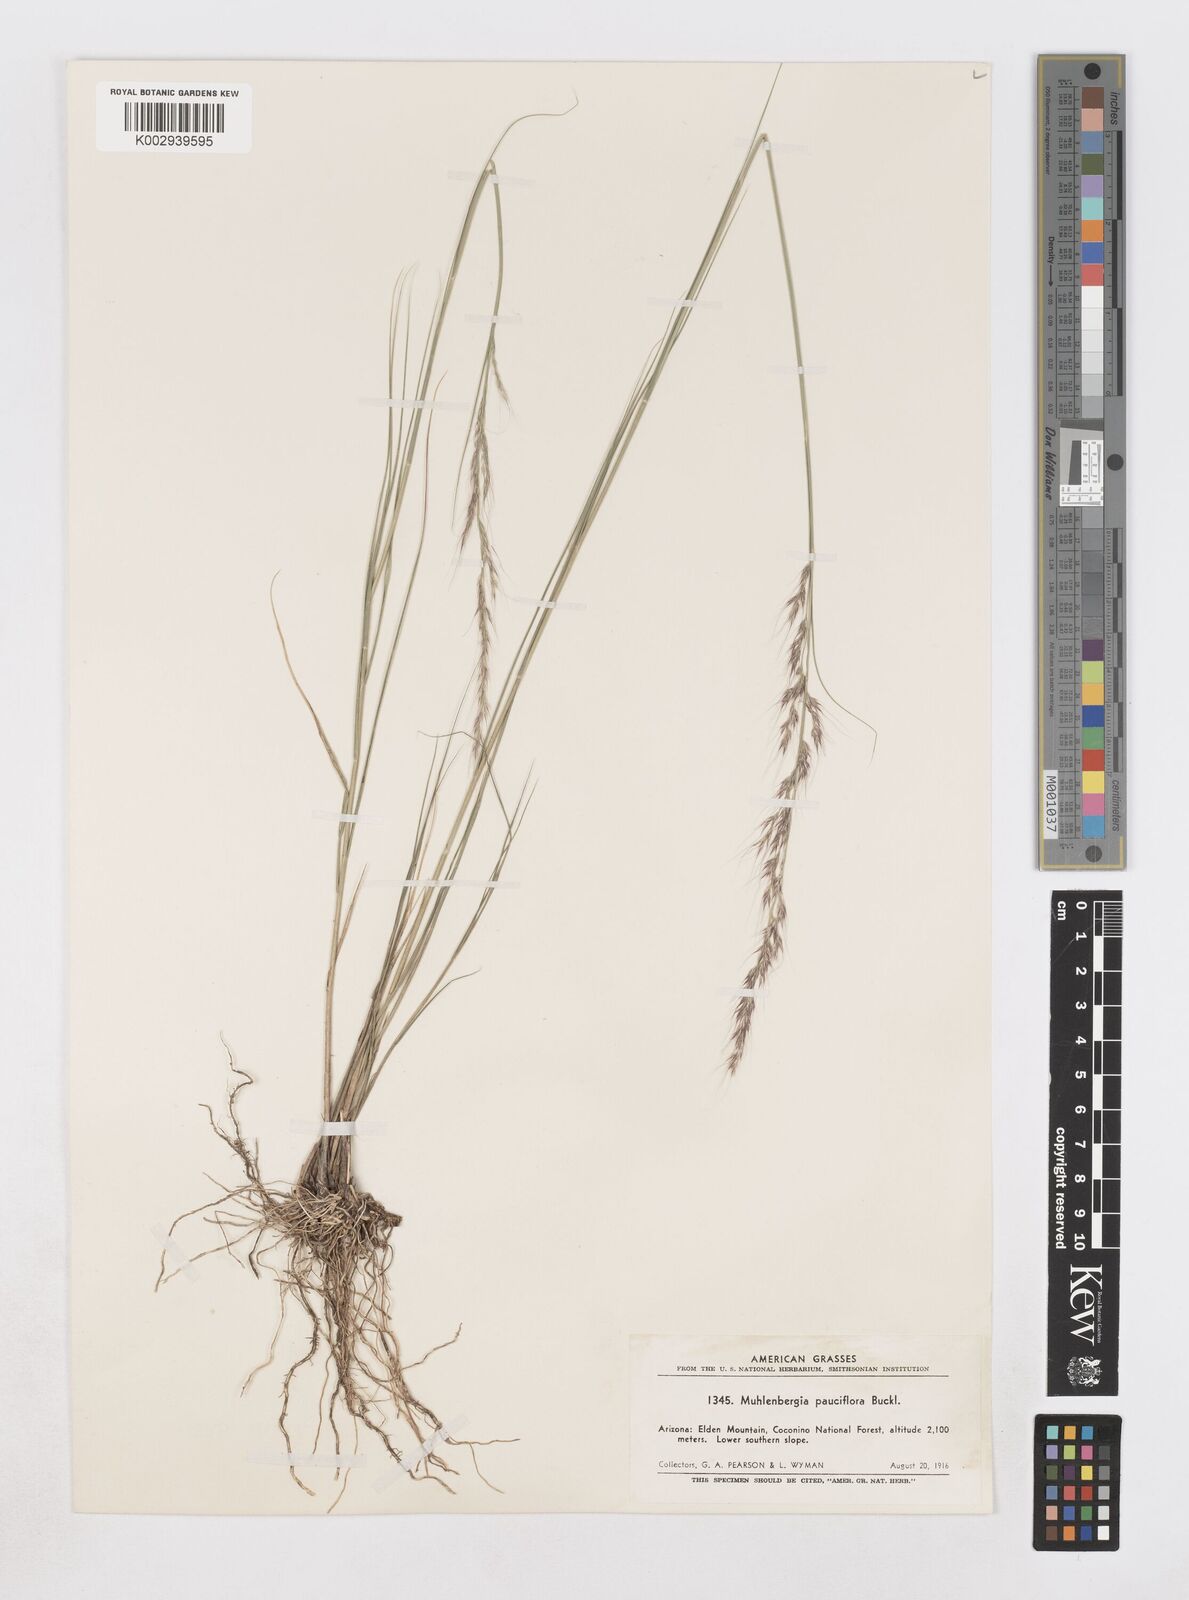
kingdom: Plantae
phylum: Tracheophyta
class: Liliopsida
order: Poales
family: Poaceae
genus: Muhlenbergia
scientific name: Muhlenbergia pauciflora
